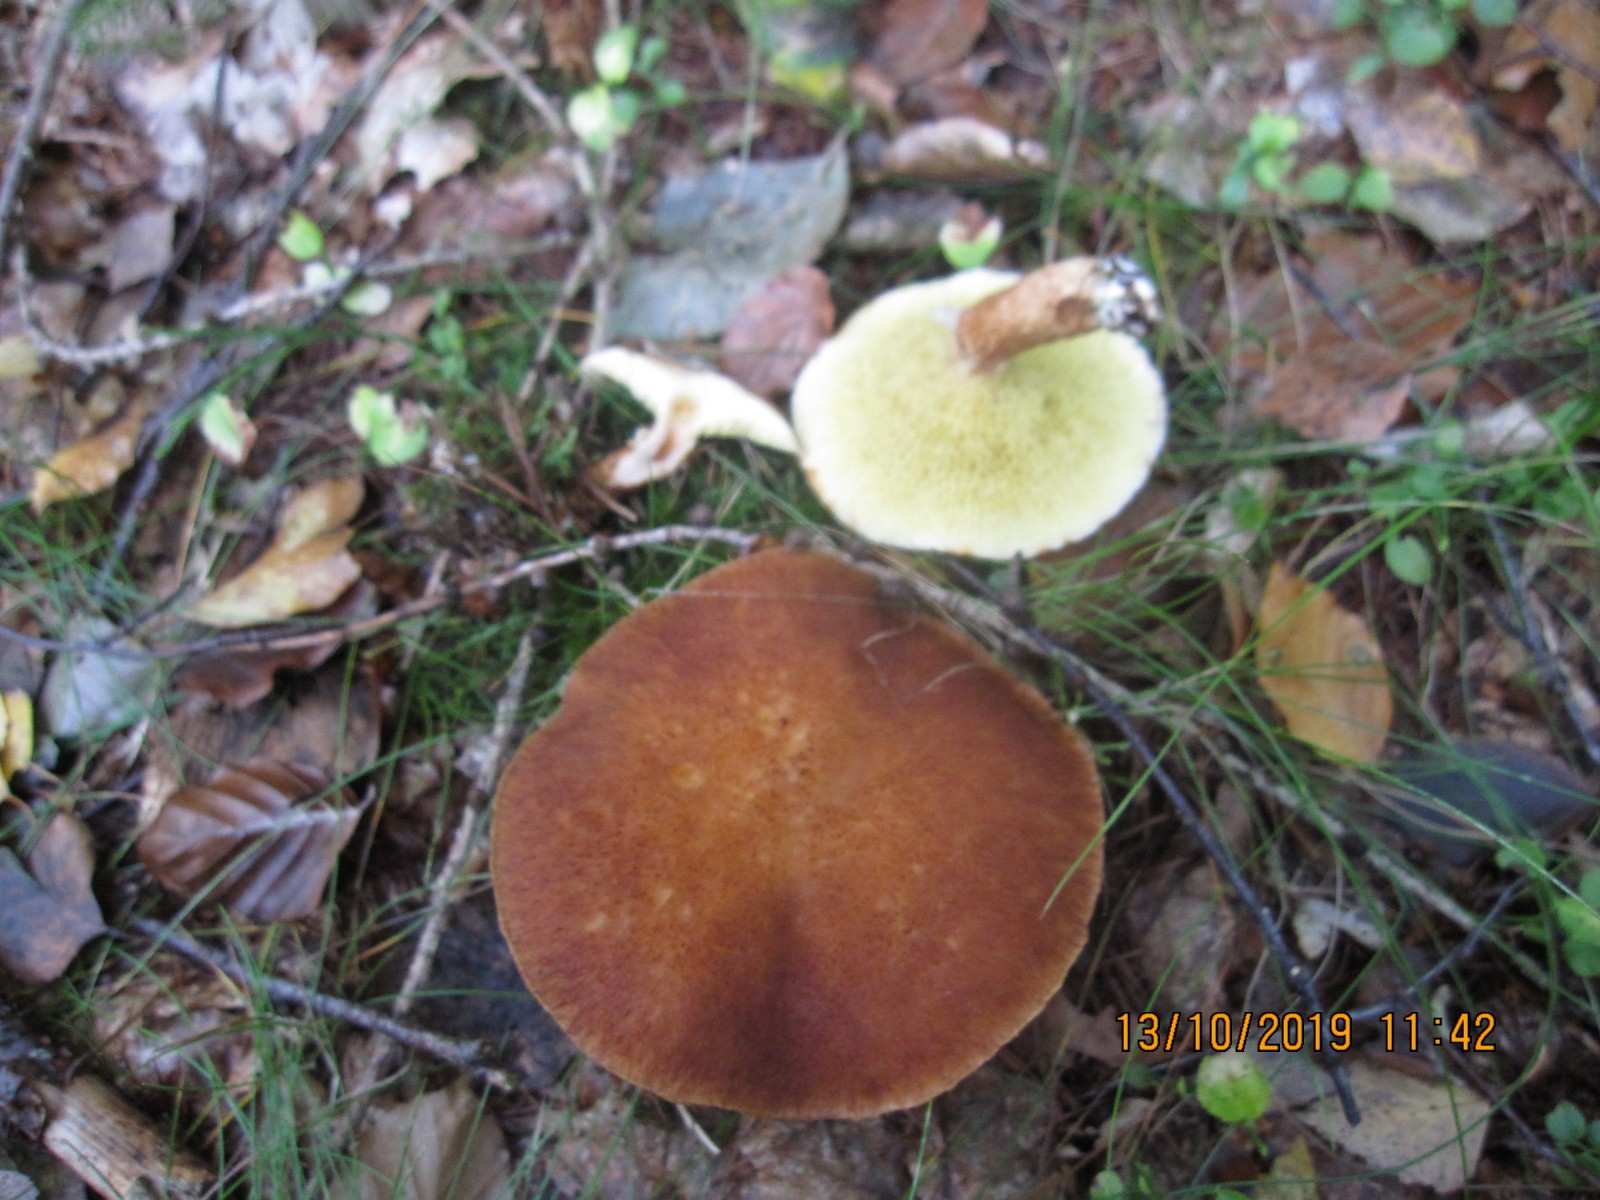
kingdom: Fungi
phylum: Basidiomycota
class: Agaricomycetes
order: Boletales
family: Suillaceae
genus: Suillus
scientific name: Suillus cavipes
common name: hulstokket slimrørhat
